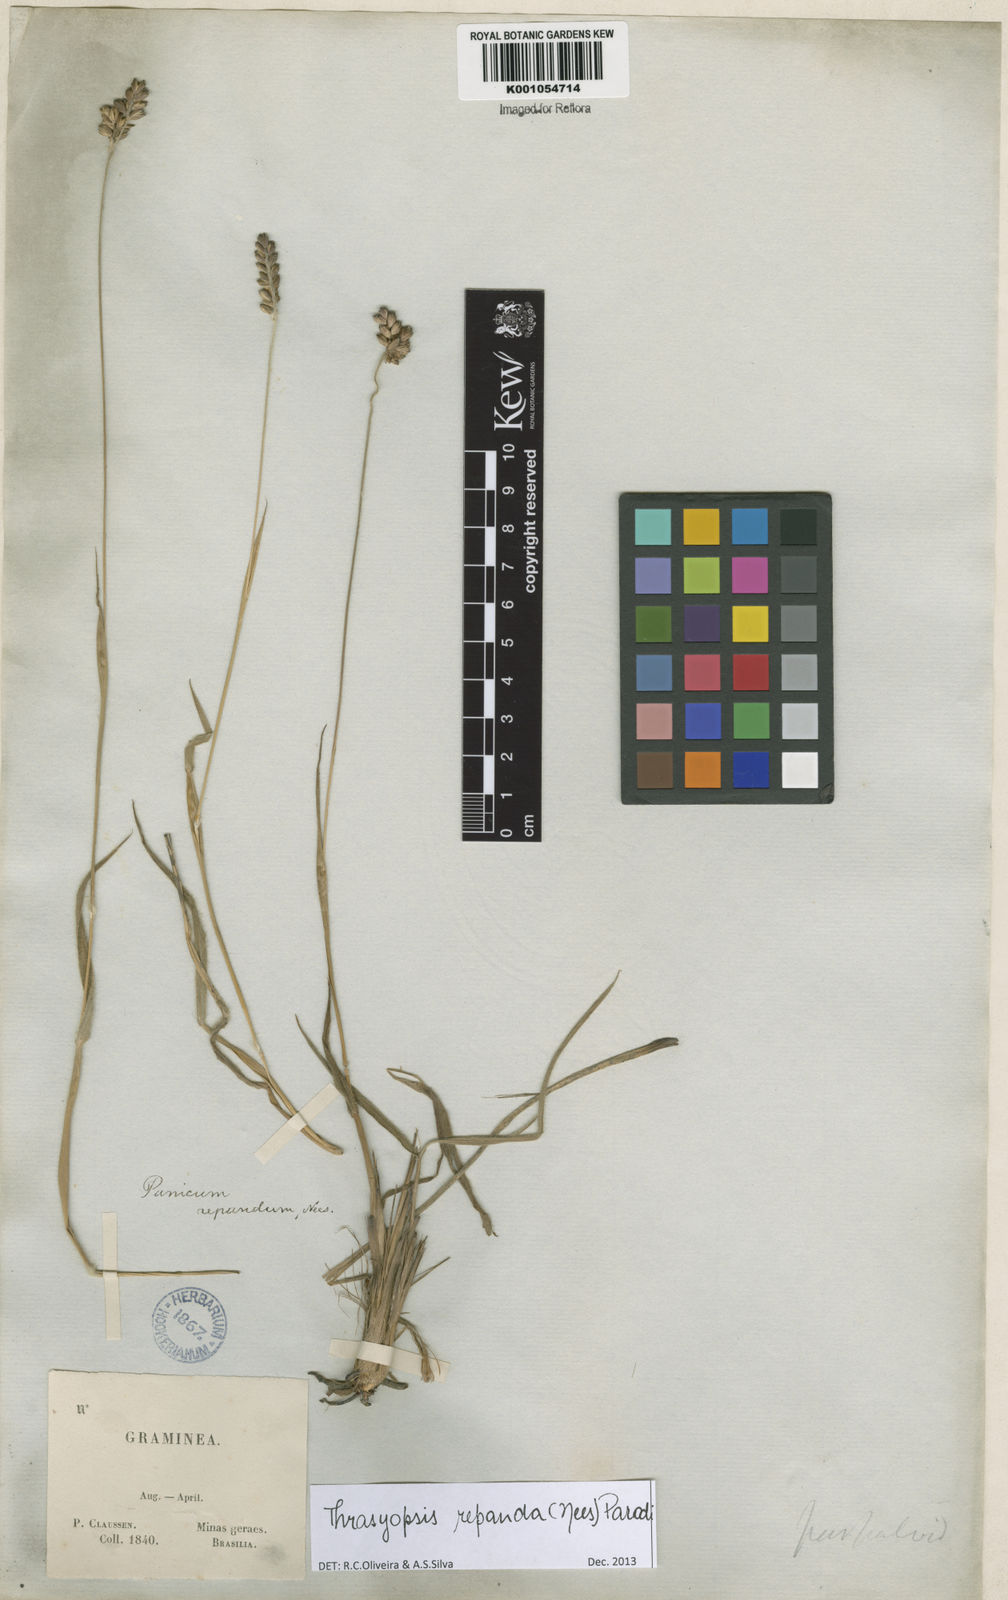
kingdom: Plantae
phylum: Tracheophyta
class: Liliopsida
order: Poales
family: Poaceae
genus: Paspalum
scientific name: Paspalum repandum
